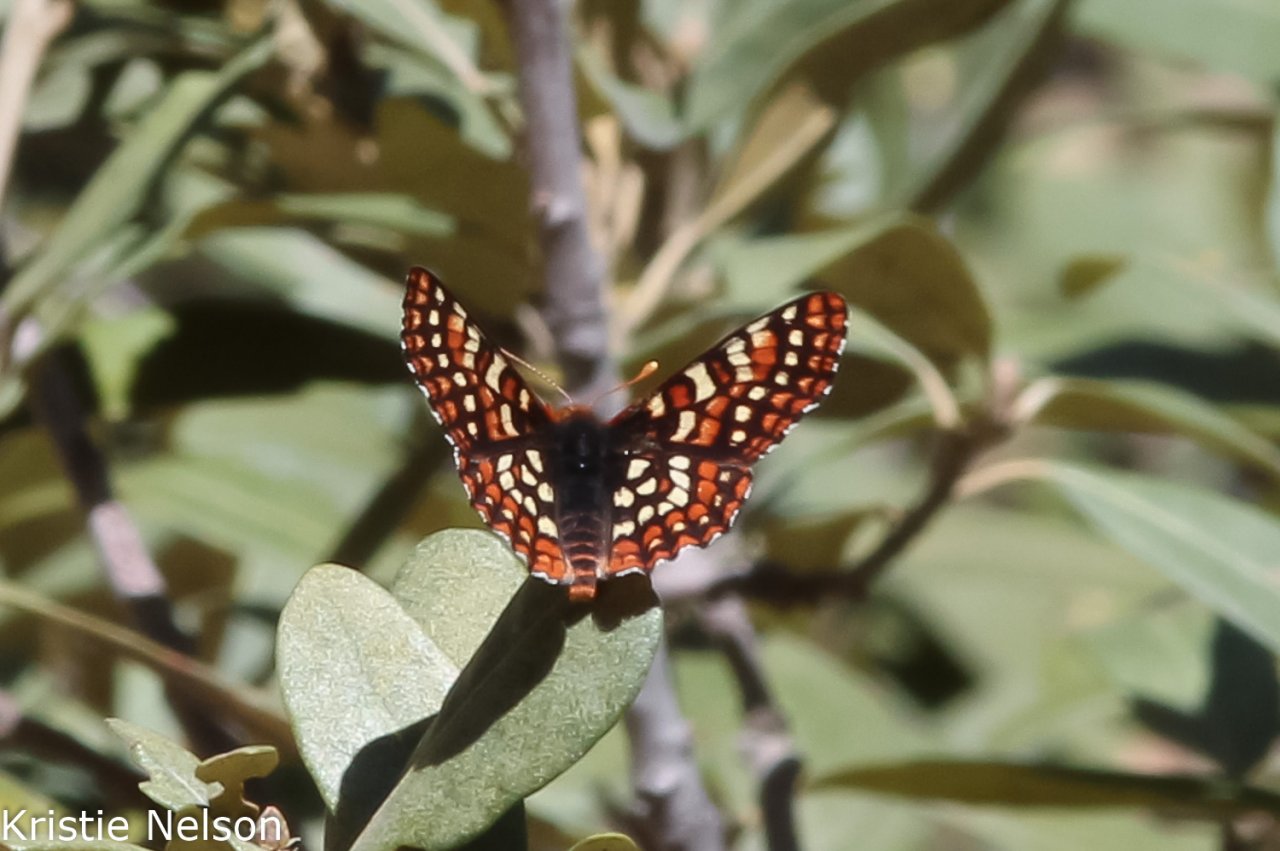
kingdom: Animalia
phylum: Arthropoda
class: Insecta
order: Lepidoptera
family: Nymphalidae
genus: Occidryas
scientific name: Occidryas editha
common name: Edith's Checkerspot
